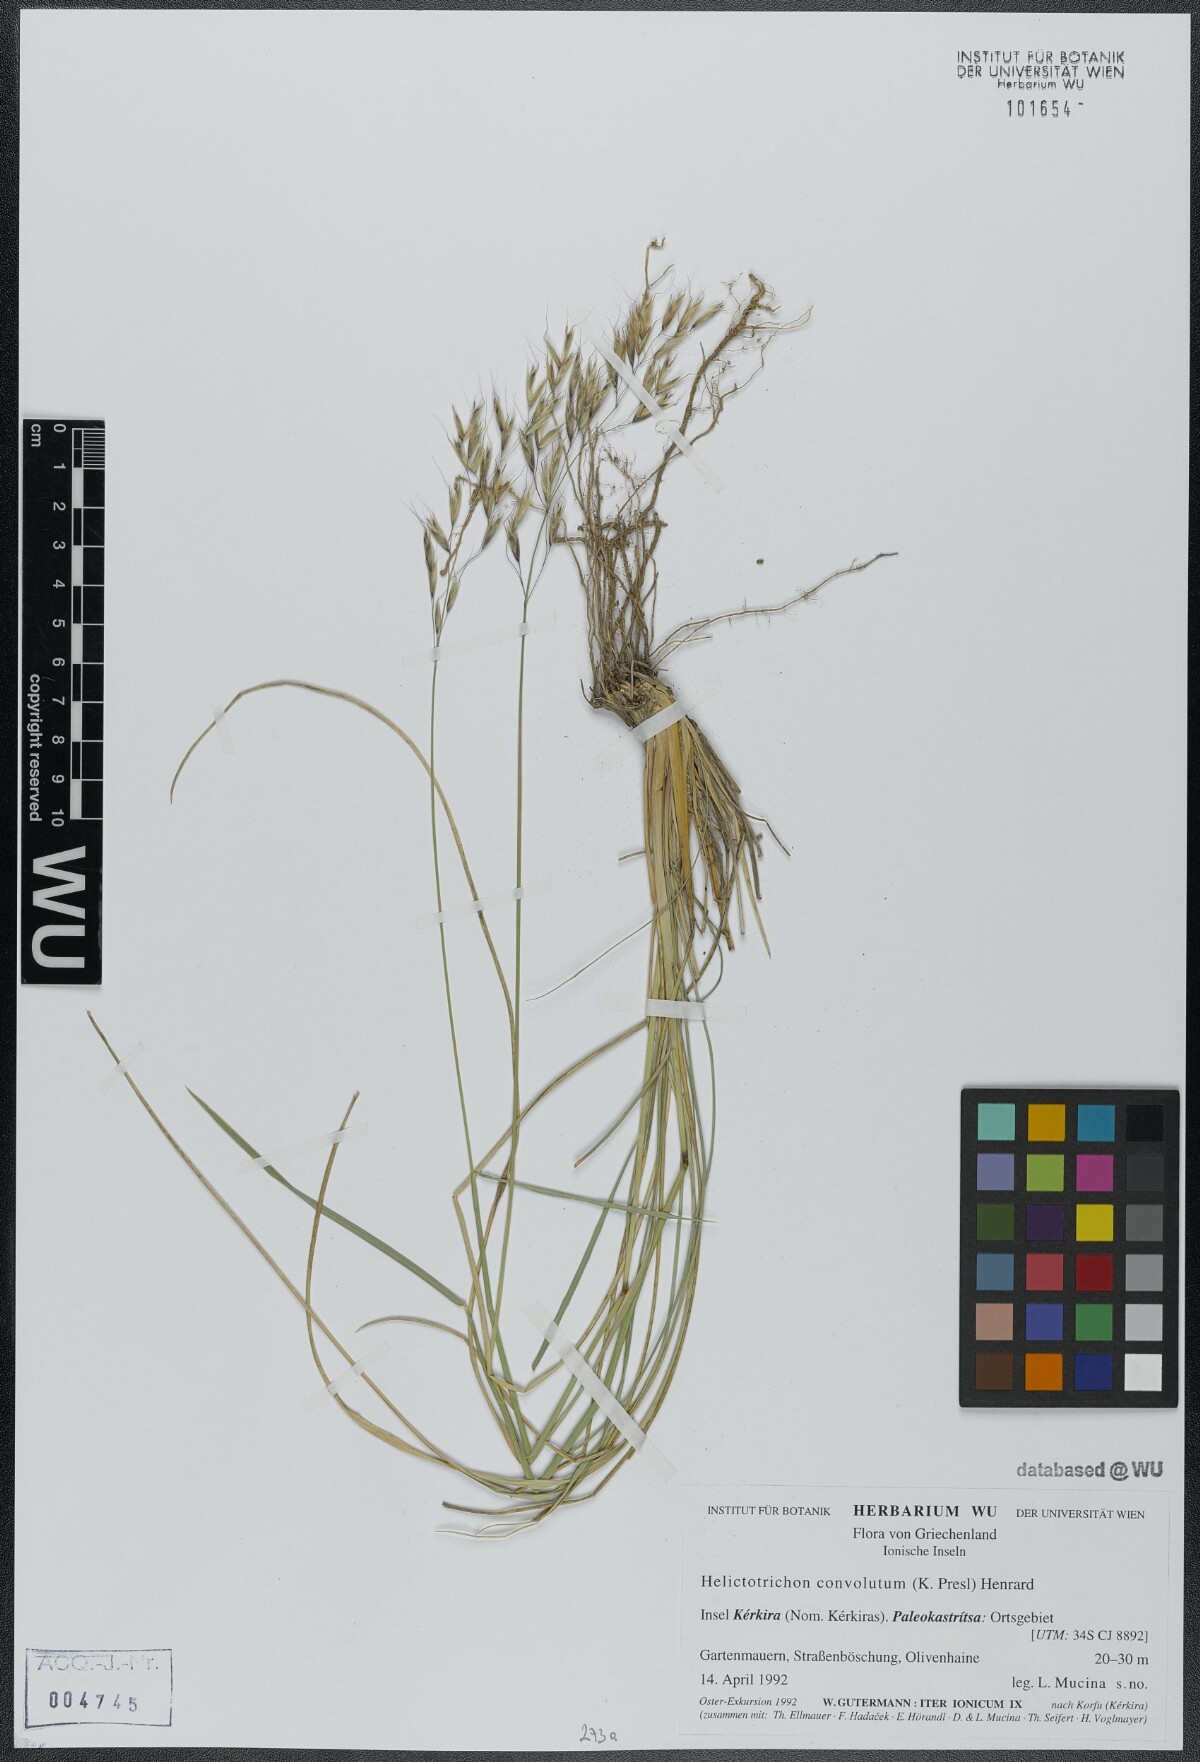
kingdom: Plantae
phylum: Tracheophyta
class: Liliopsida
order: Poales
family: Poaceae
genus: Helictotrichon
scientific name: Helictotrichon convolutum
